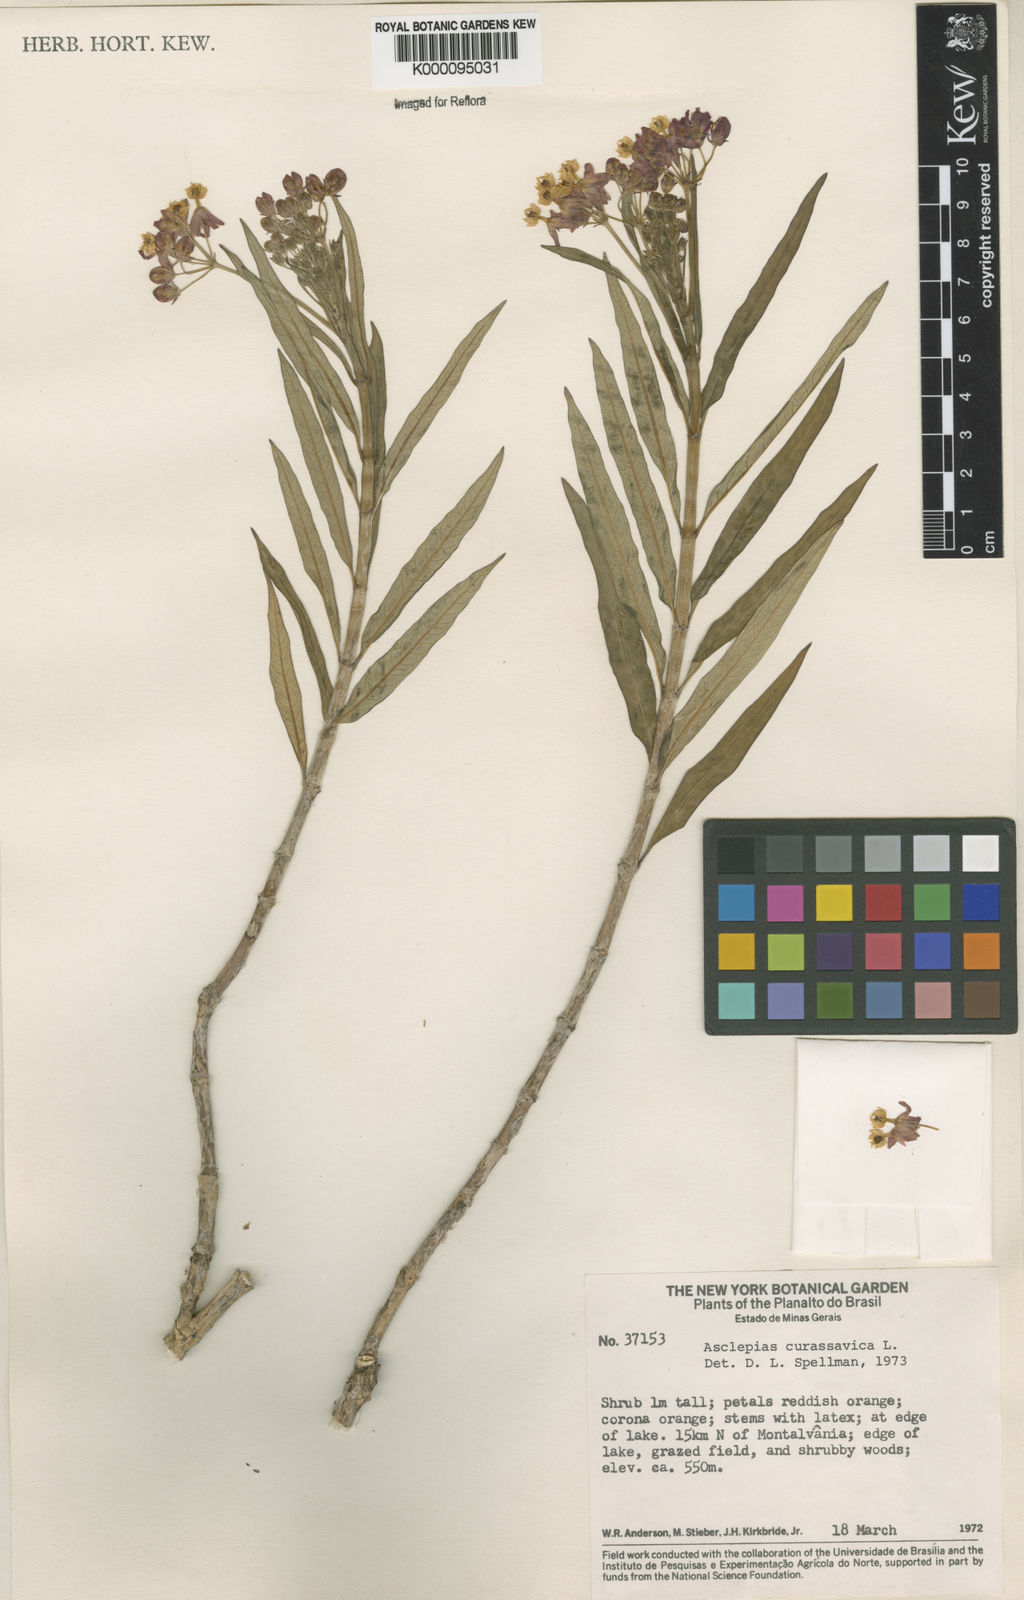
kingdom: Plantae
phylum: Tracheophyta
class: Magnoliopsida
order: Gentianales
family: Apocynaceae
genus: Asclepias
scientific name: Asclepias curassavica
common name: Bloodflower
